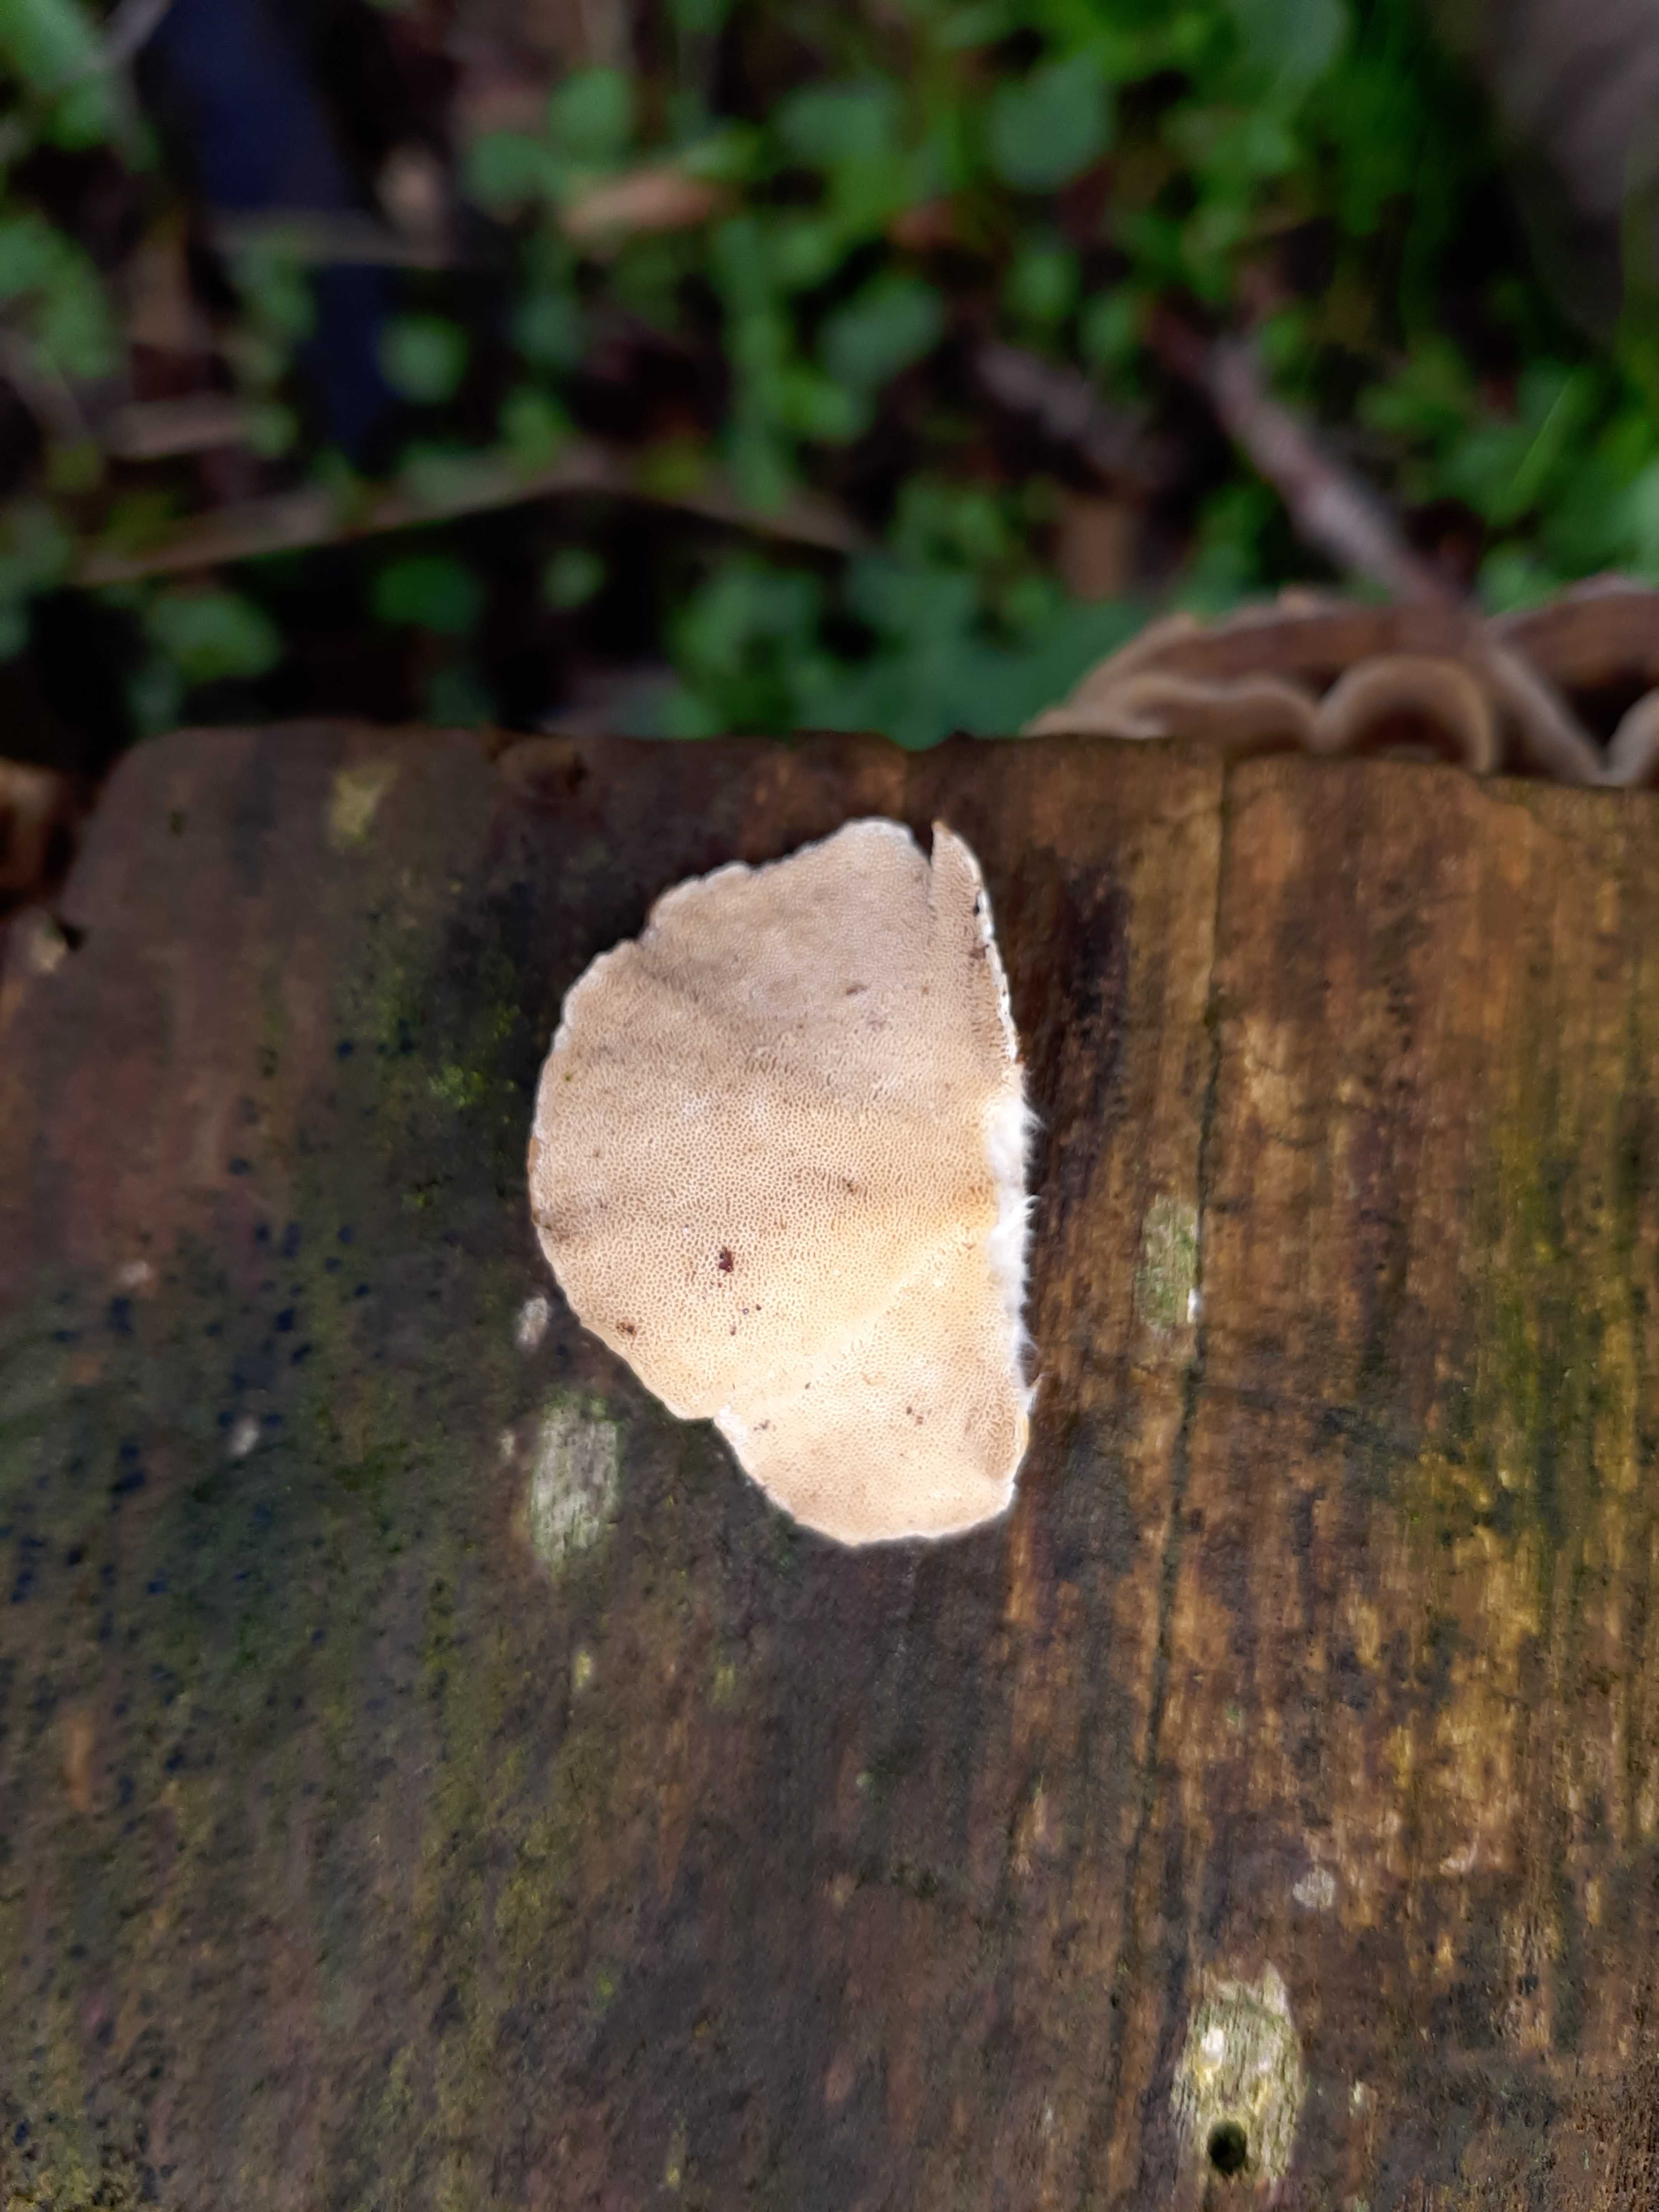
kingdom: Fungi
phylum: Basidiomycota
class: Agaricomycetes
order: Polyporales
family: Polyporaceae
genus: Trametes
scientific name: Trametes versicolor
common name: broget læderporesvamp
